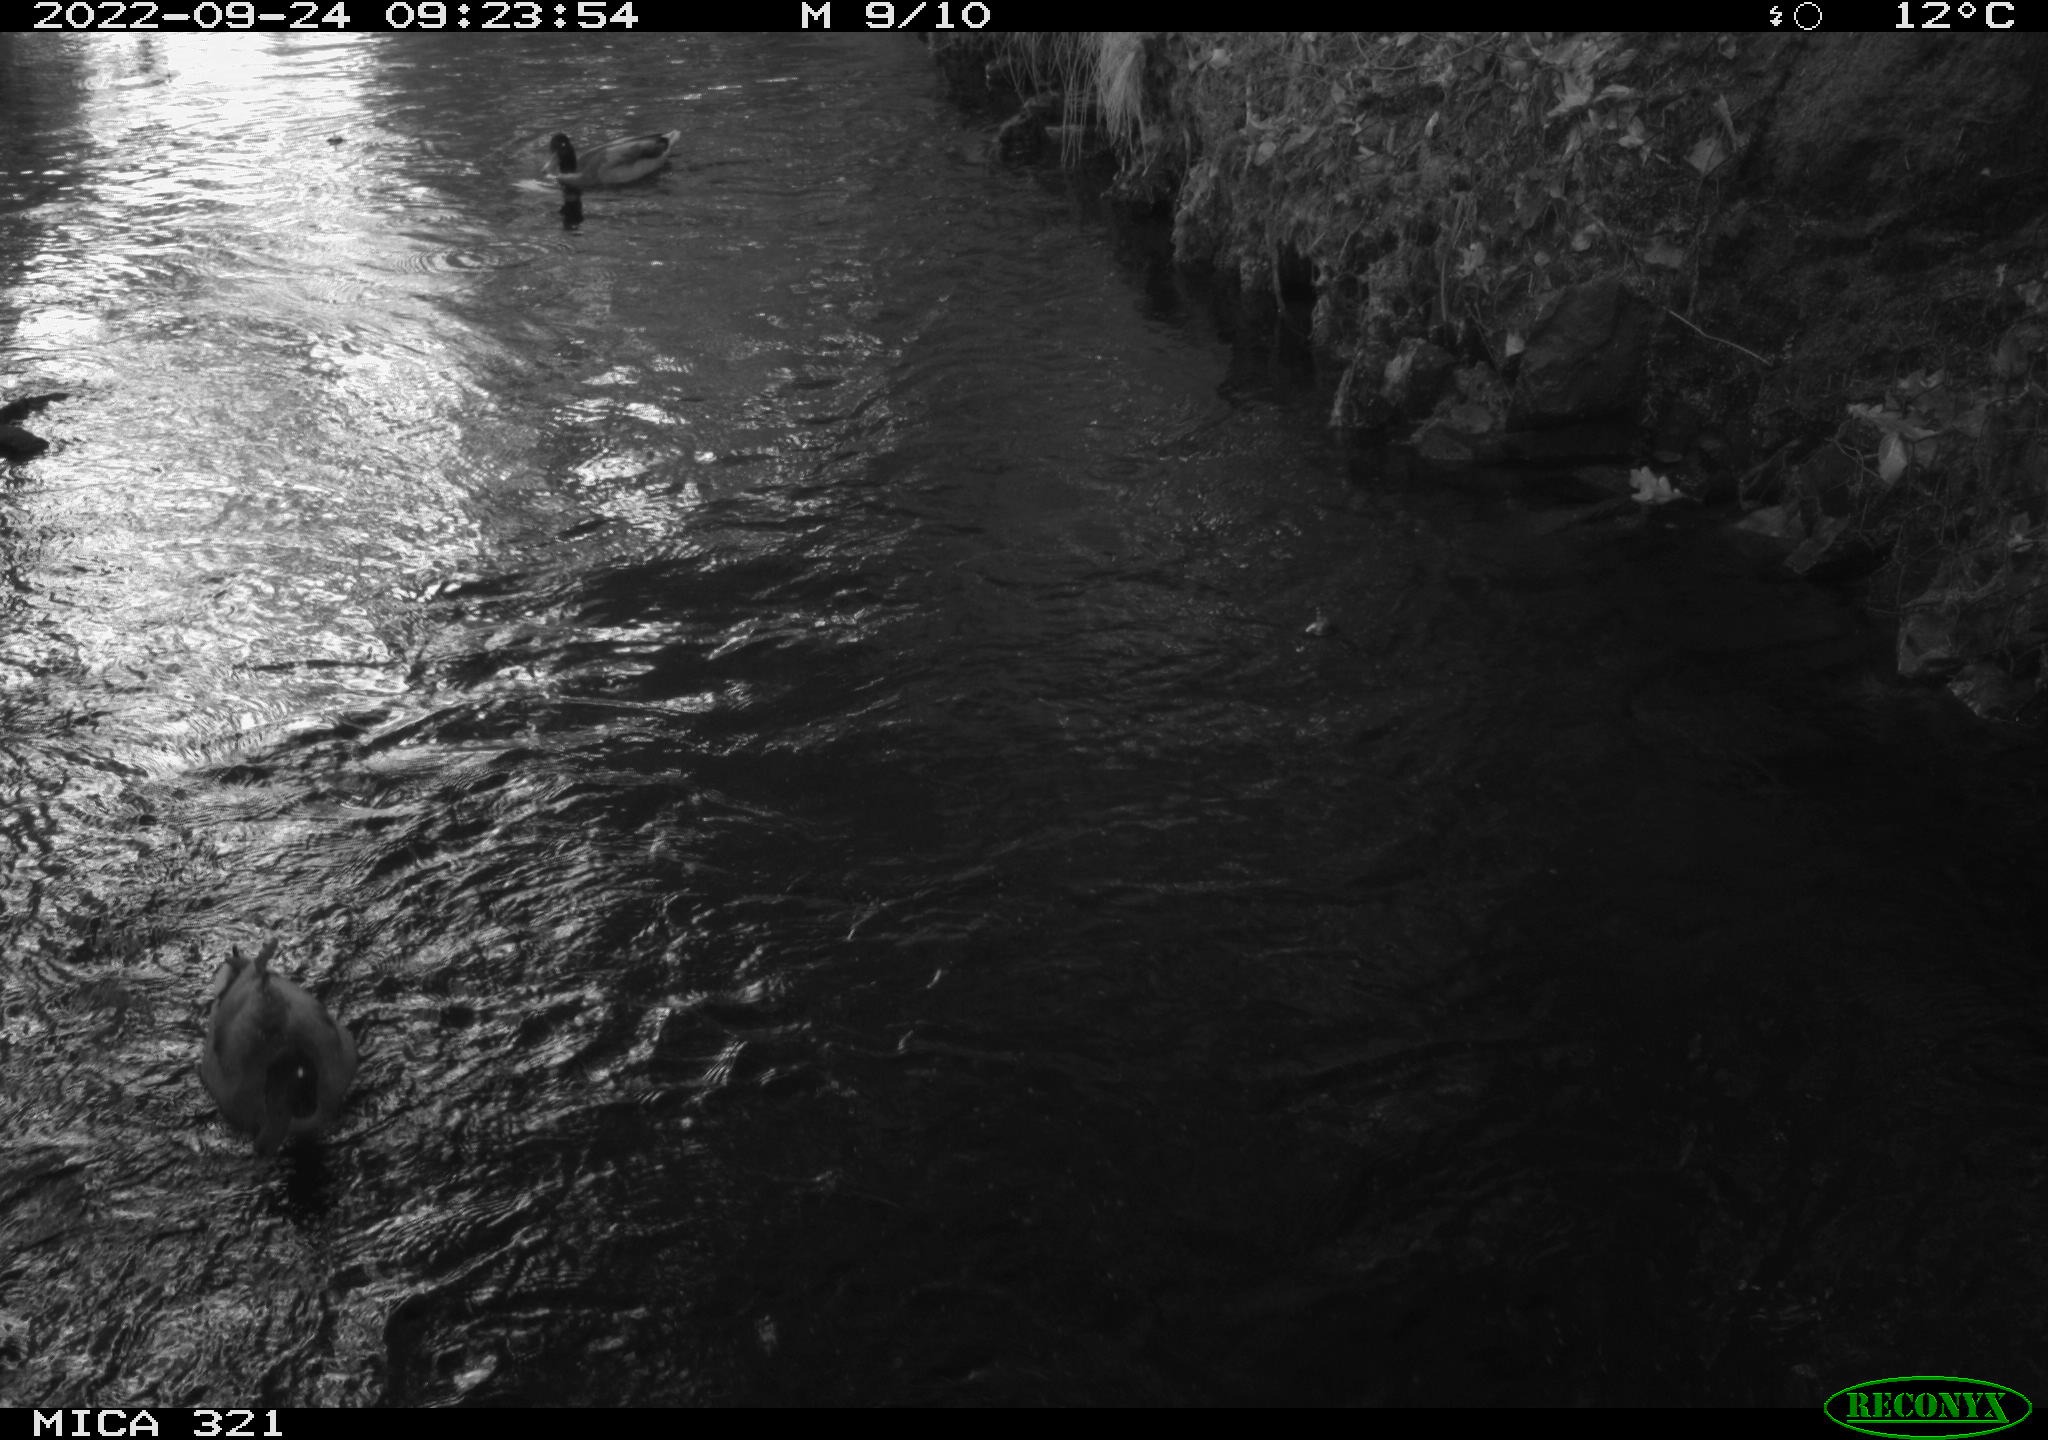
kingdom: Animalia
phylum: Chordata
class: Aves
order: Anseriformes
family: Anatidae
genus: Anas
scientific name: Anas
